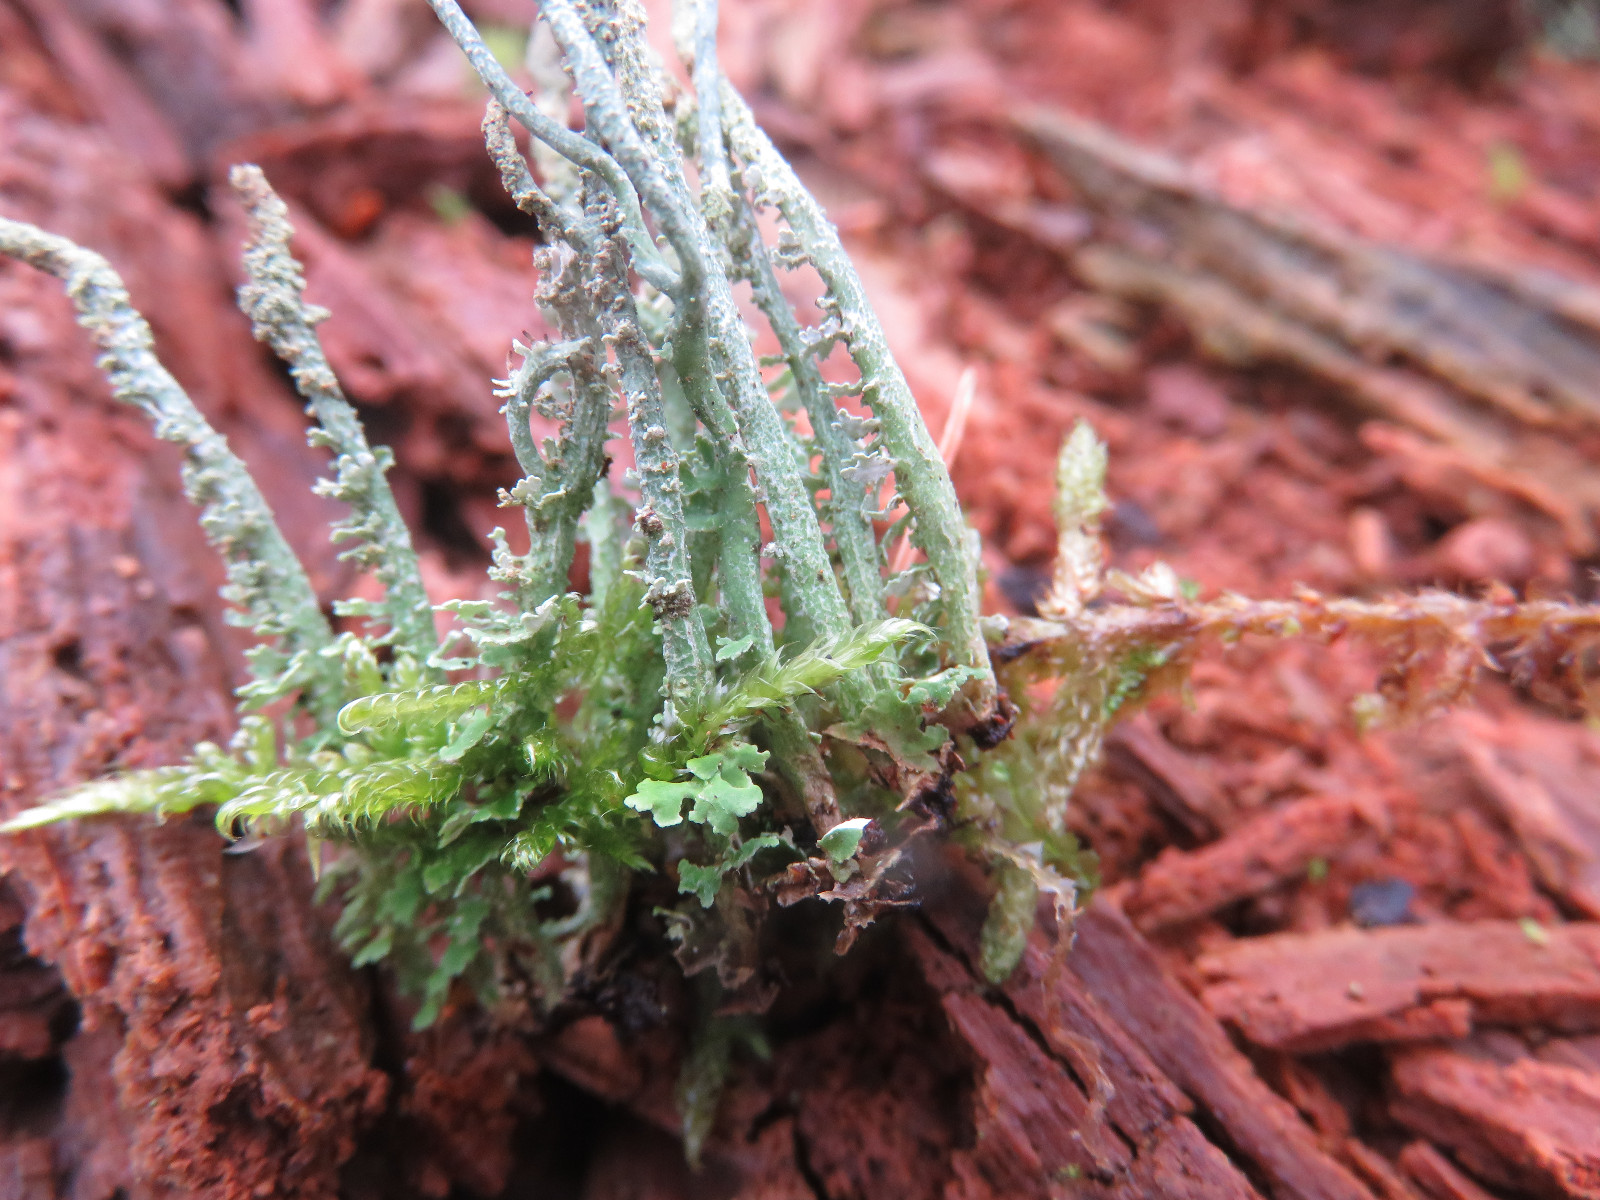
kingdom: Fungi
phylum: Ascomycota
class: Lecanoromycetes
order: Lecanorales
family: Cladoniaceae
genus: Cladonia
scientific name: Cladonia scabriuscula
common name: ru bægerlav
